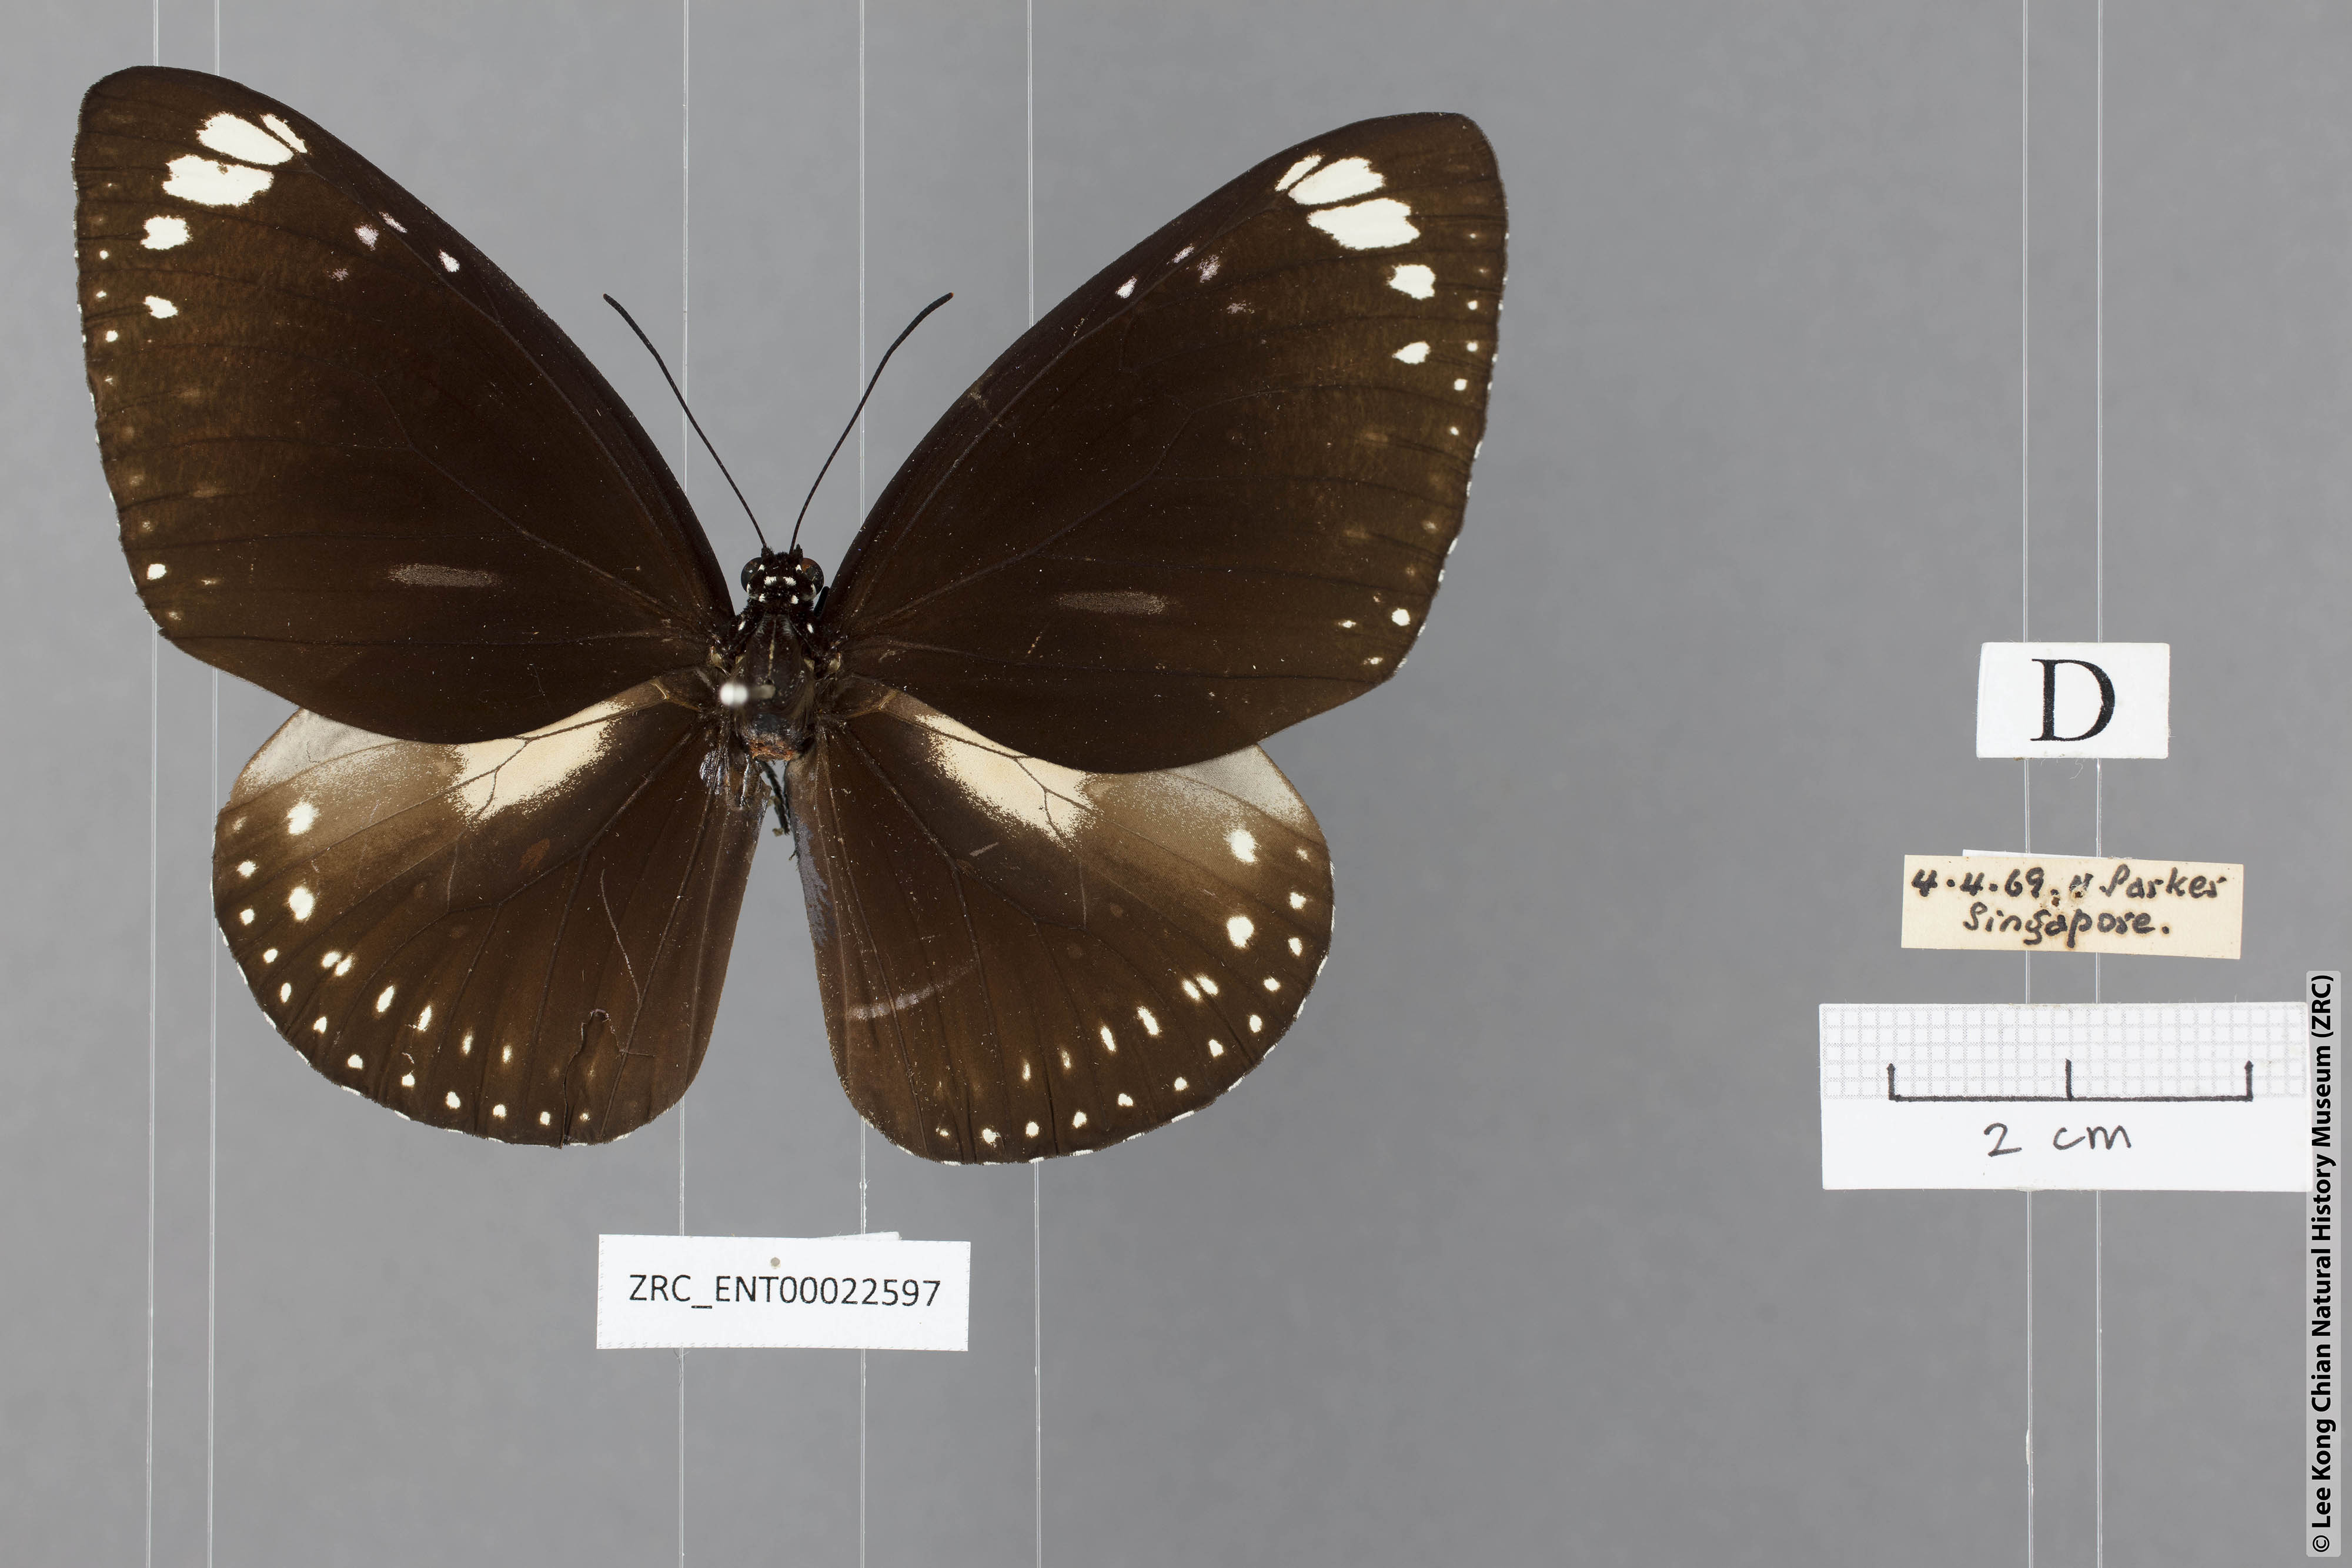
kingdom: Animalia
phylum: Arthropoda
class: Insecta
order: Lepidoptera
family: Nymphalidae
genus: Euploea
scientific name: Euploea midamus
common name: Blue-spotted crow butterfly
